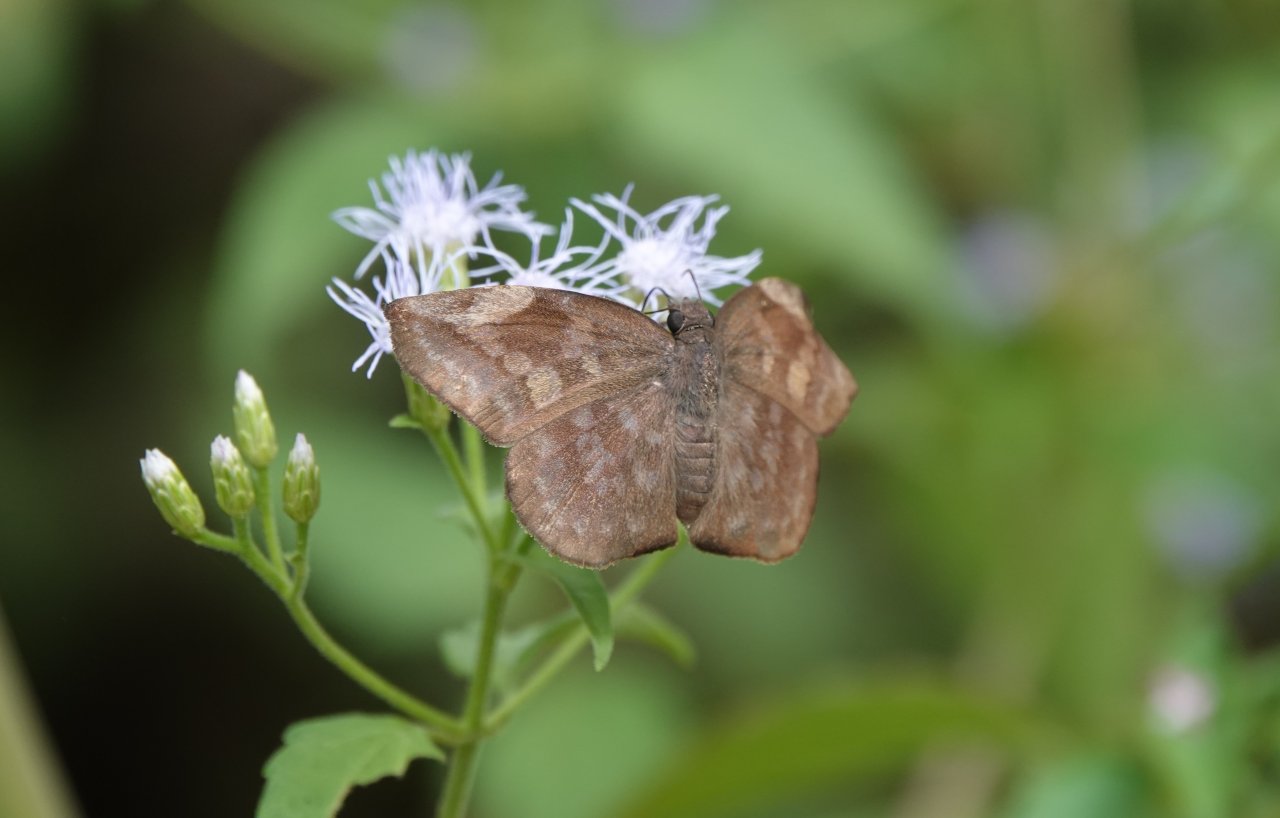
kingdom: Animalia
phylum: Arthropoda
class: Insecta
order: Lepidoptera
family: Hesperiidae
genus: Achlyodes
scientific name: Achlyodes thraso
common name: Sickle-winged Skipper
